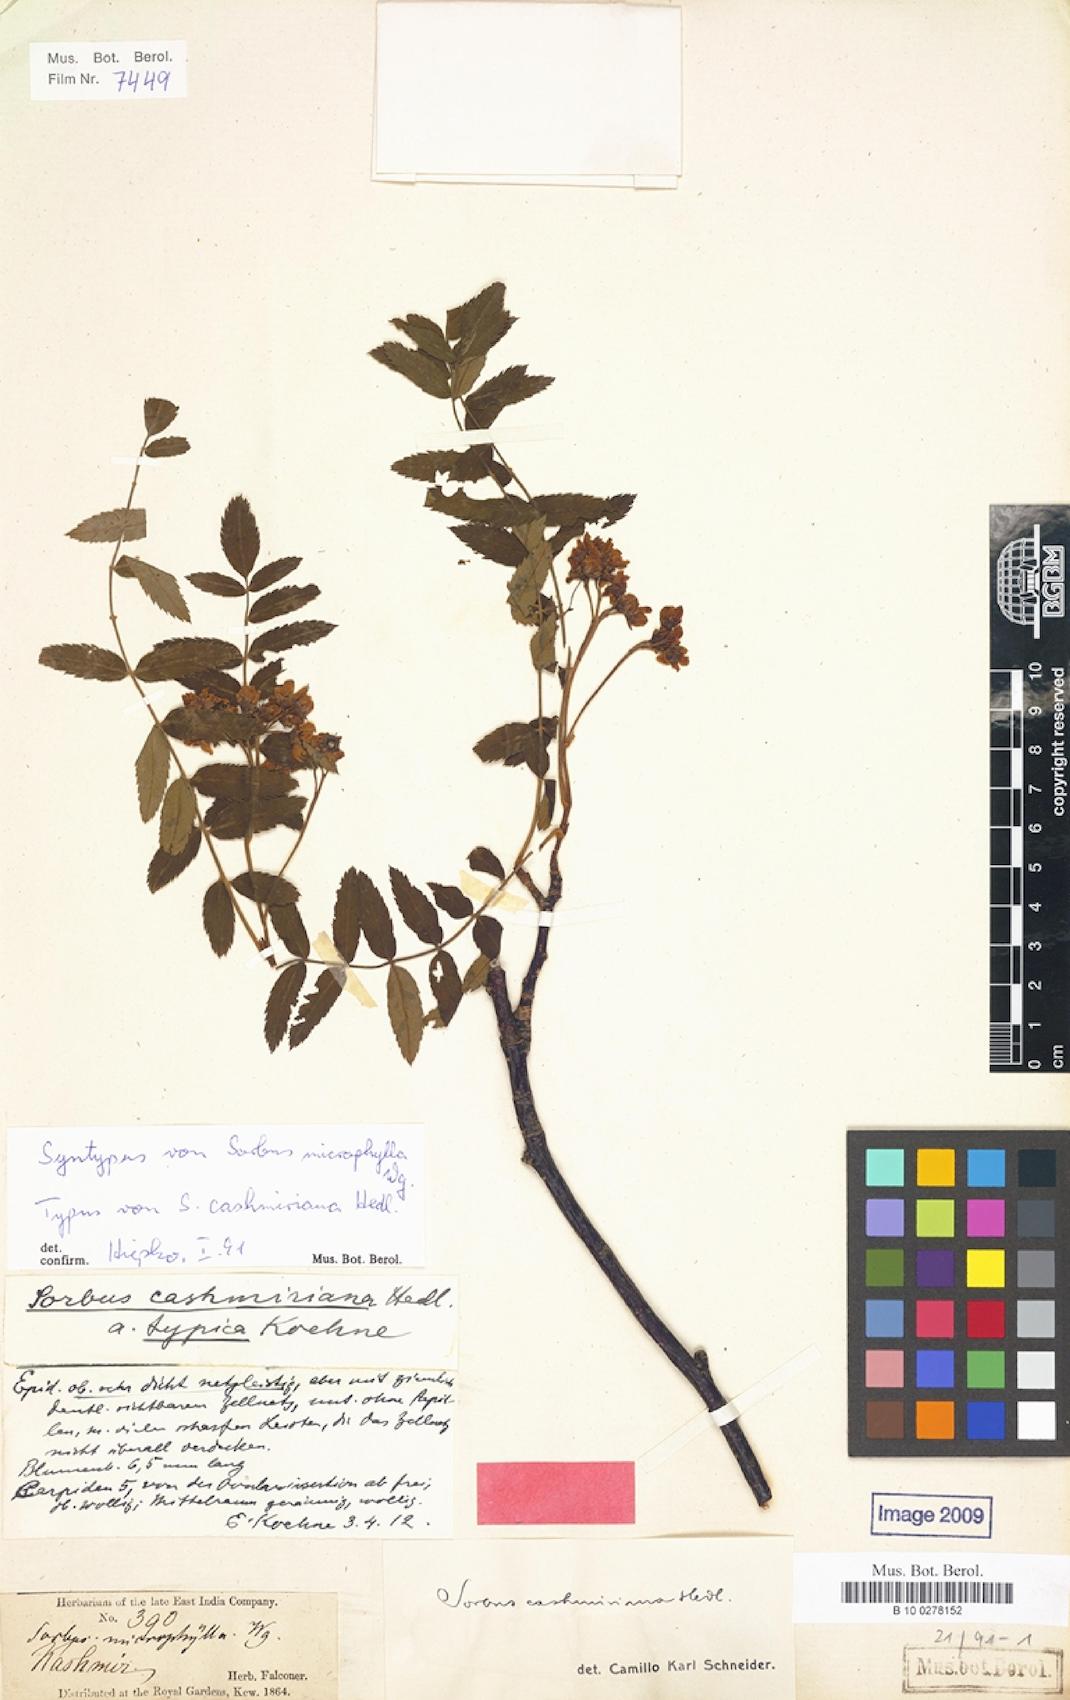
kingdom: Plantae
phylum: Tracheophyta
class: Magnoliopsida
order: Rosales
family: Rosaceae
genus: Sorbus
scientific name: Sorbus cashmiriana
